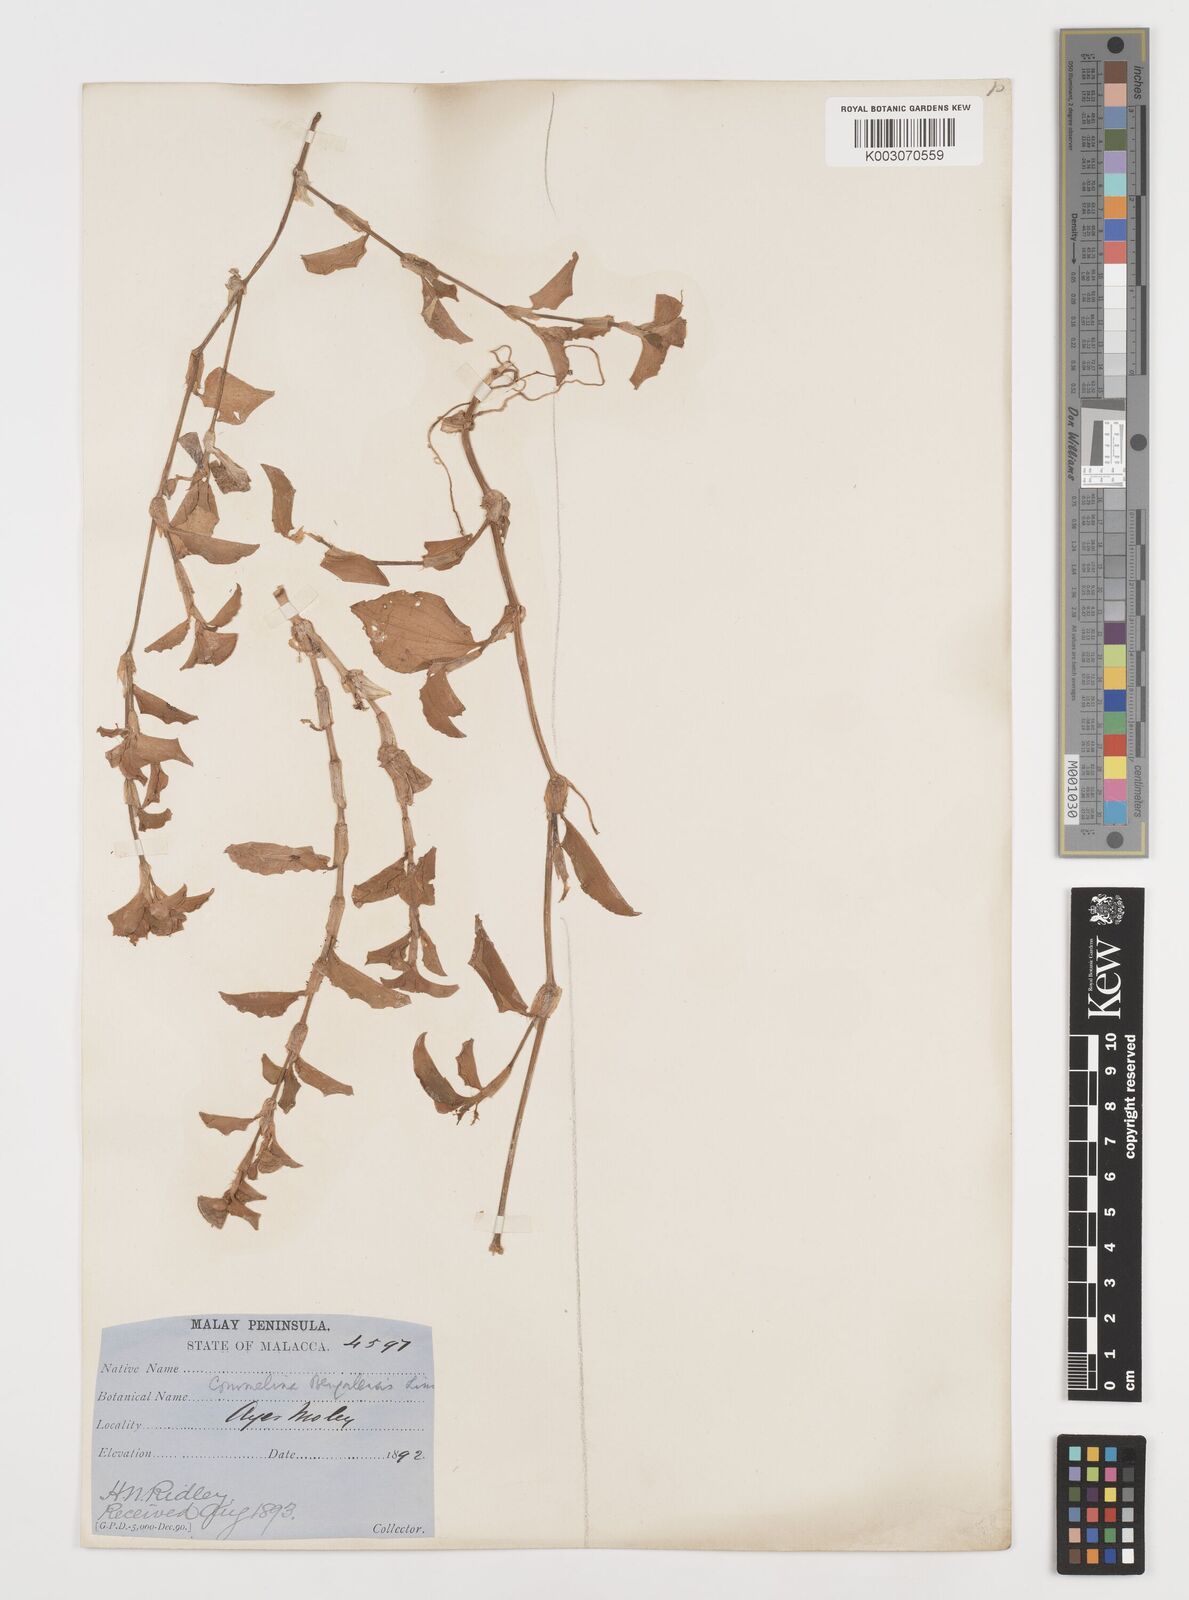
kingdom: Plantae
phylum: Tracheophyta
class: Liliopsida
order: Commelinales
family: Commelinaceae
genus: Commelina
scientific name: Commelina benghalensis
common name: Jio
